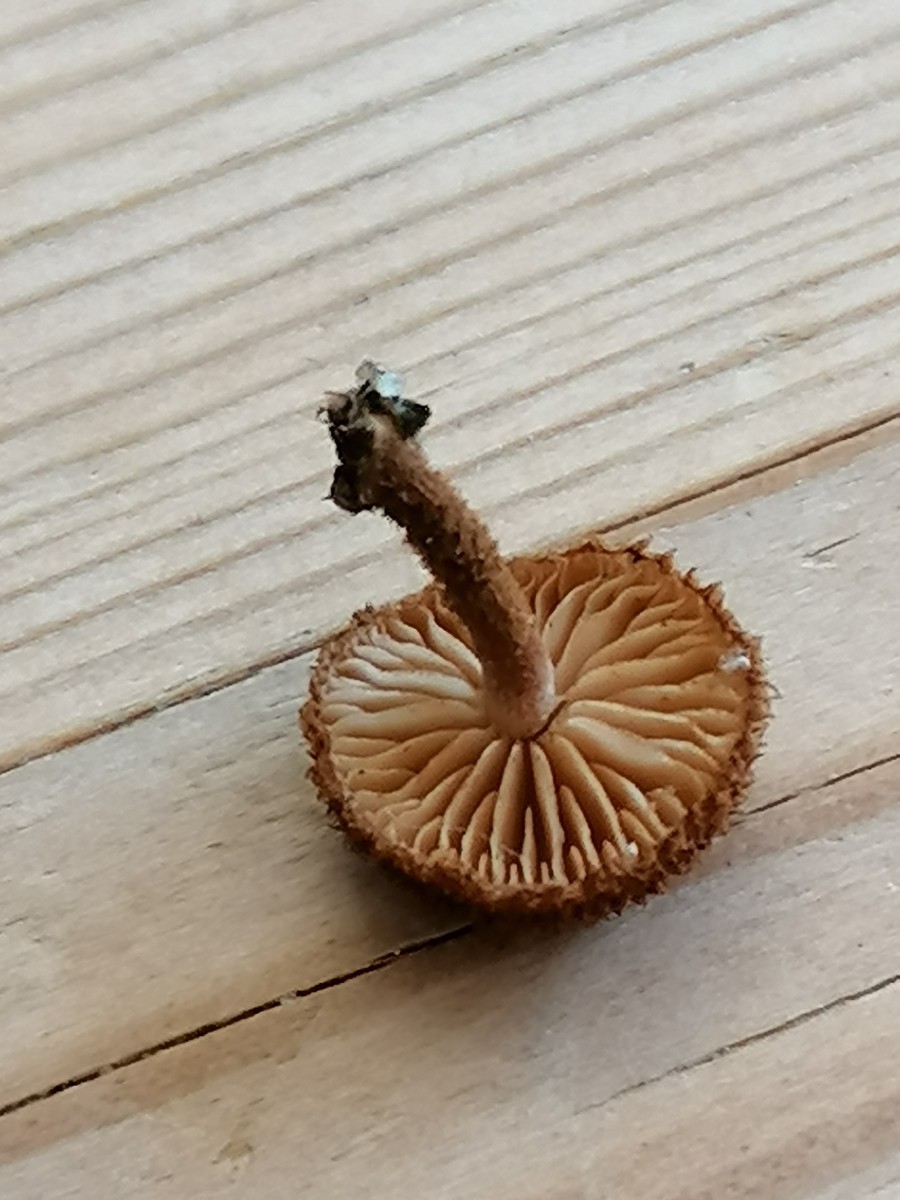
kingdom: Fungi
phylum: Basidiomycota
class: Agaricomycetes
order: Agaricales
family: Tubariaceae
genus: Phaeomarasmius
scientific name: Phaeomarasmius erinaceus
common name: spidsskælhat
